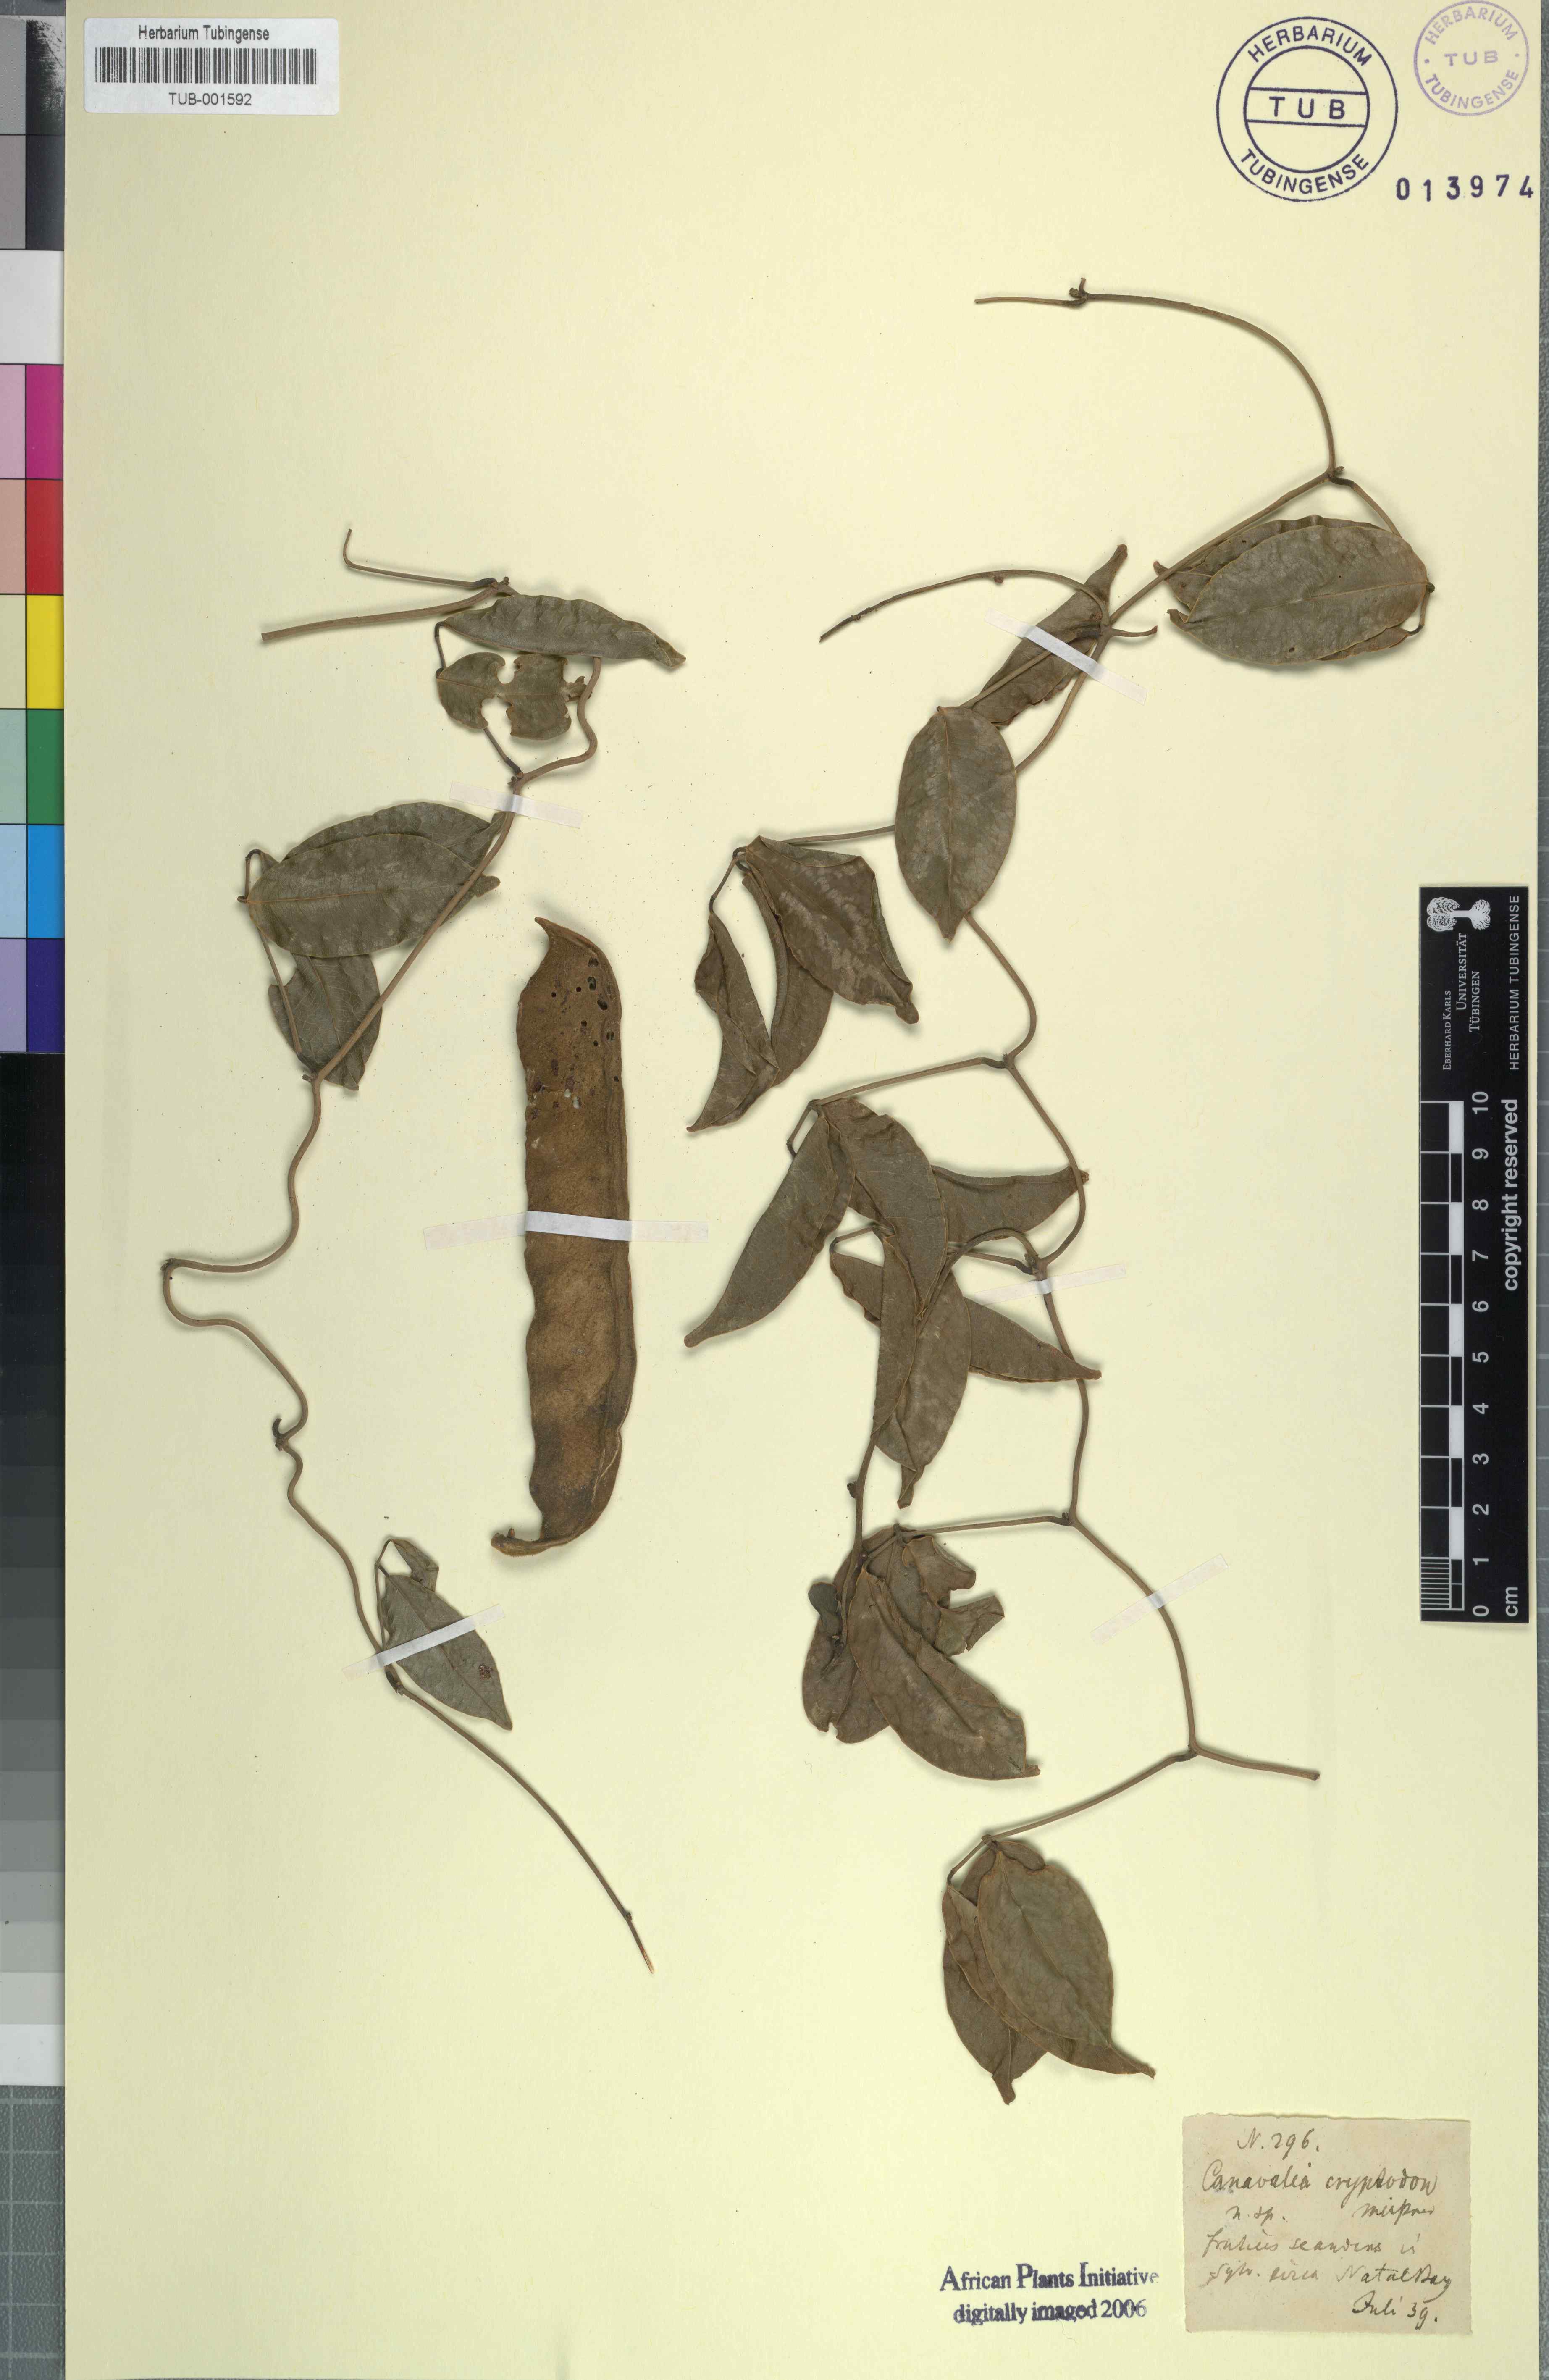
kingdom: Plantae
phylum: Tracheophyta
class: Magnoliopsida
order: Fabales
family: Fabaceae
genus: Canavalia
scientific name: Canavalia bonariensis
